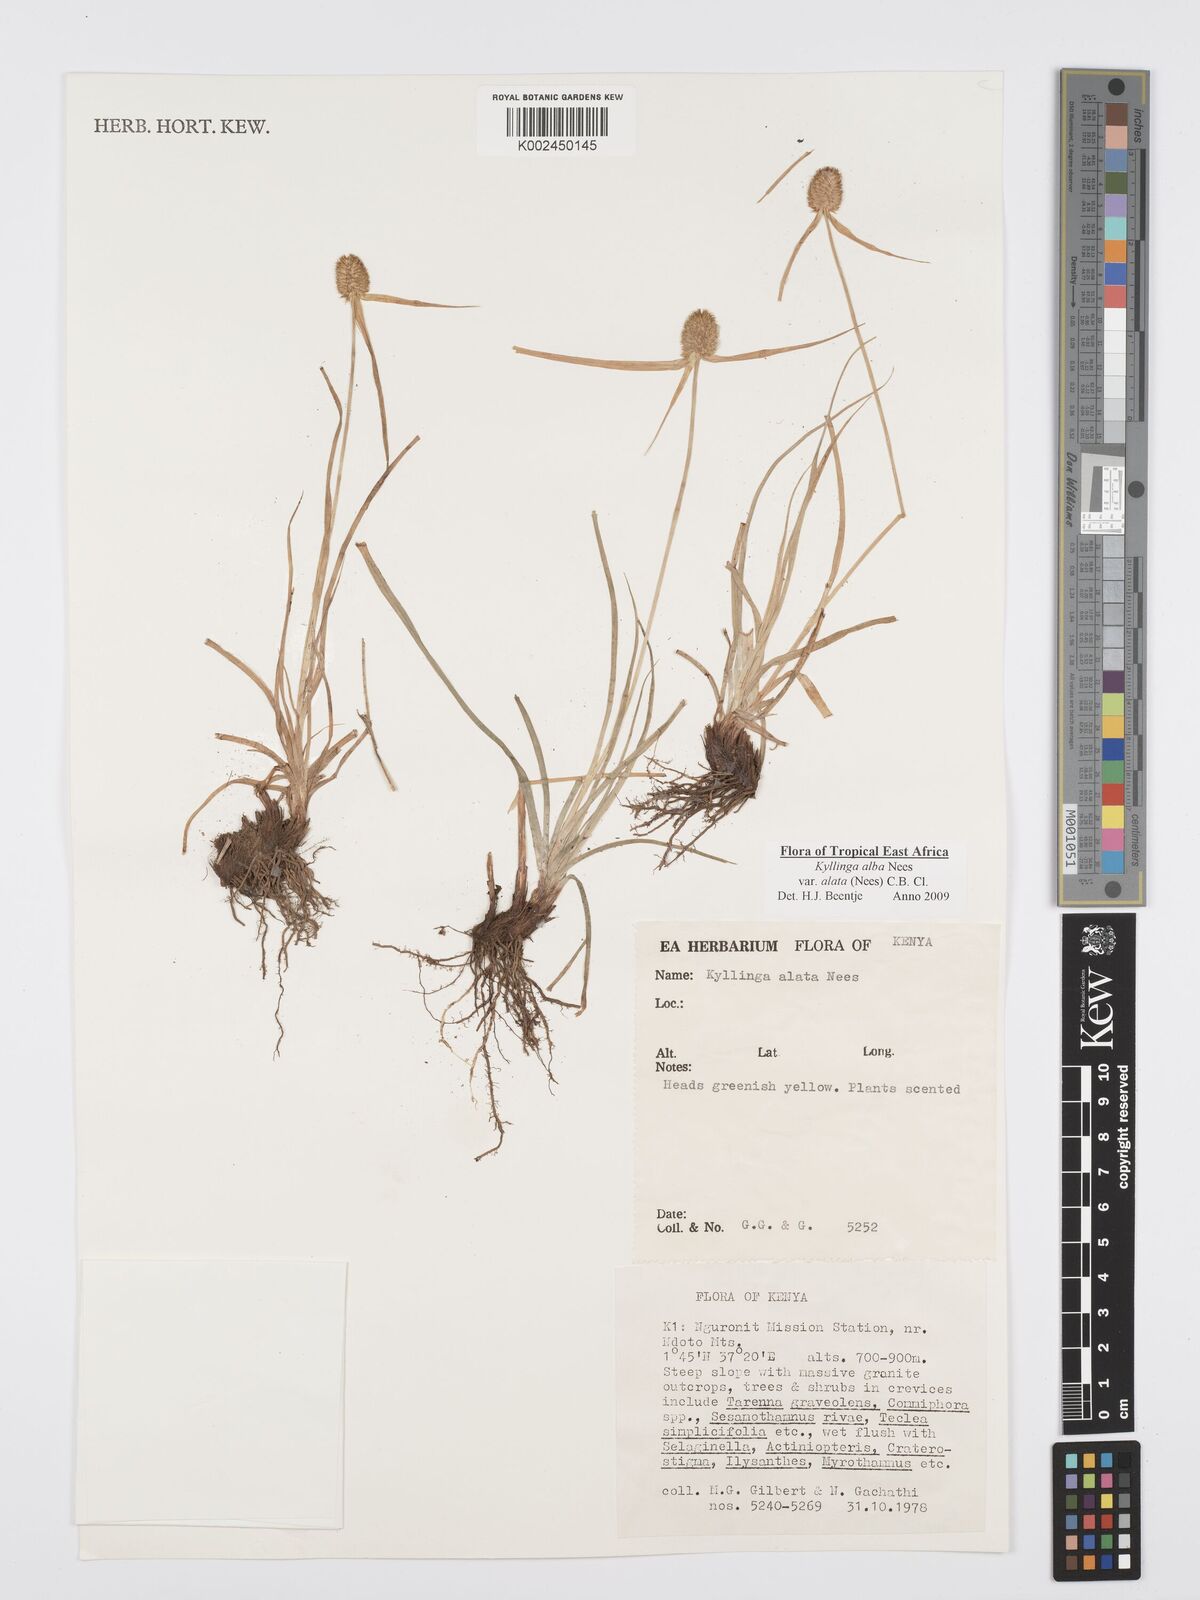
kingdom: Plantae
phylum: Tracheophyta
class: Liliopsida
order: Poales
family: Cyperaceae
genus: Cyperus
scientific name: Cyperus alatus
